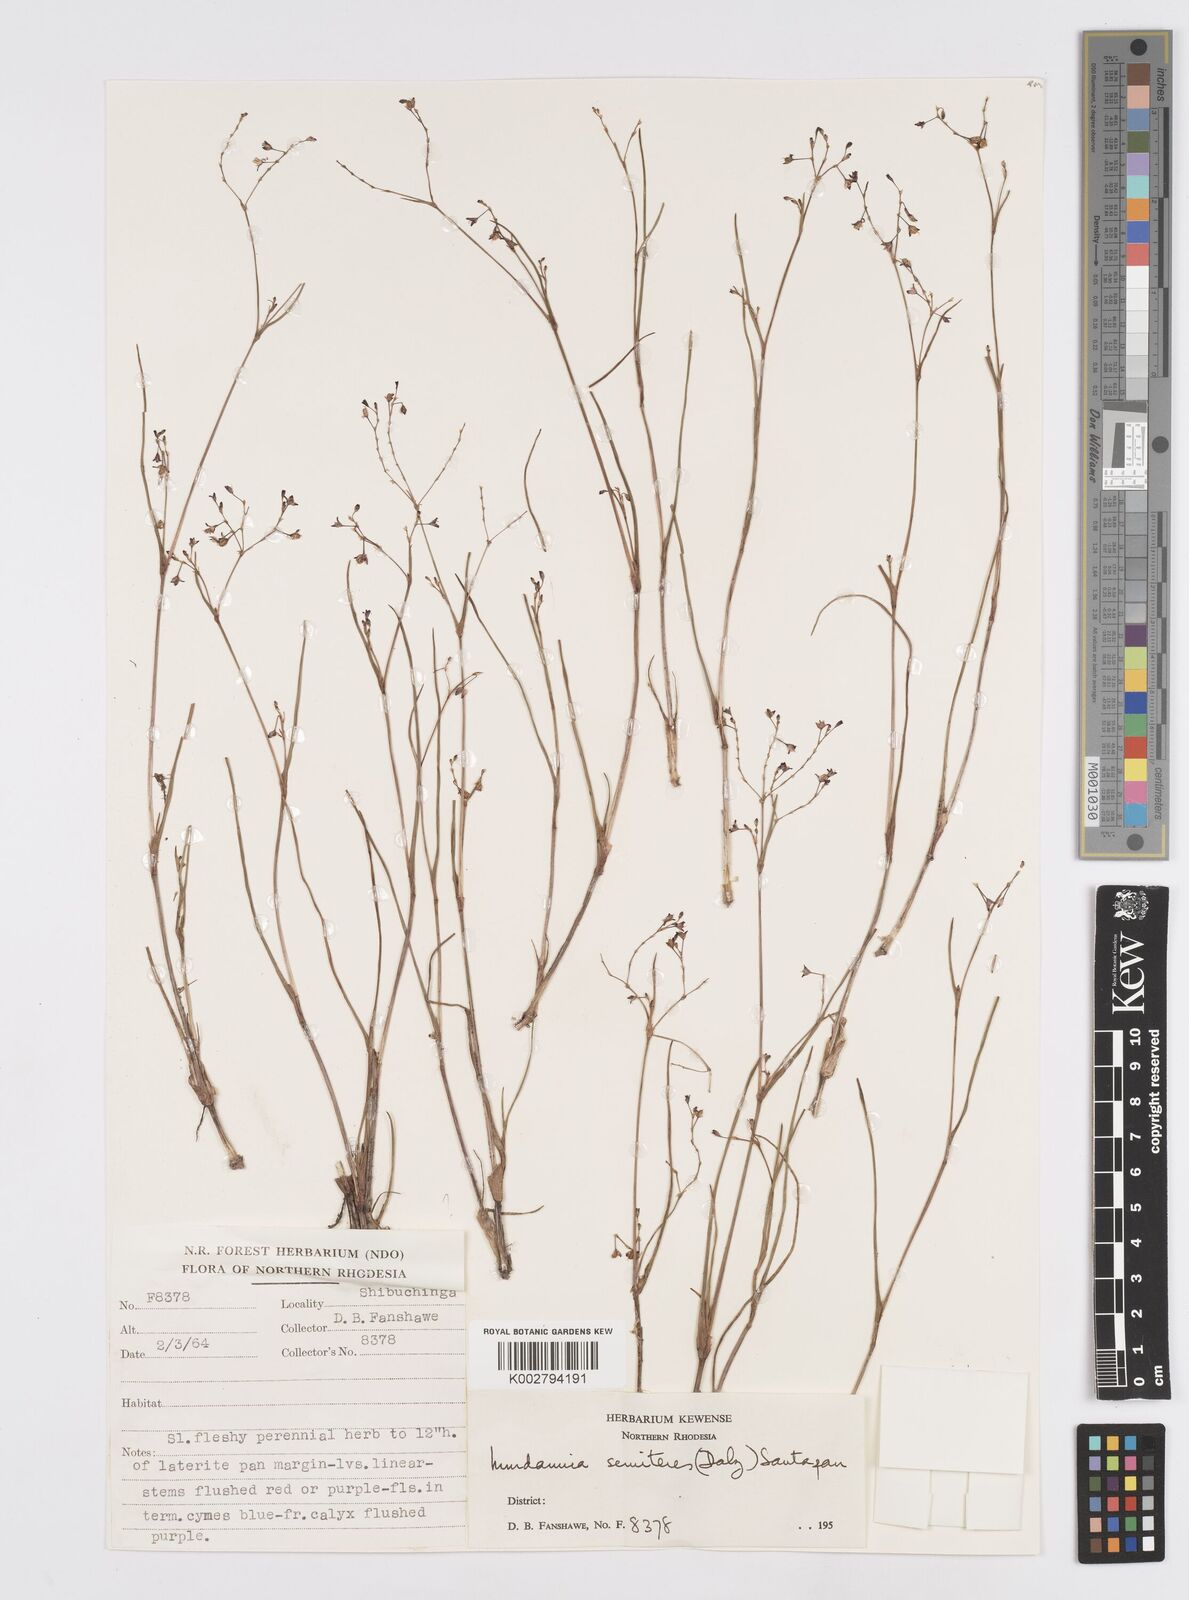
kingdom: Plantae
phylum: Tracheophyta
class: Liliopsida
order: Commelinales
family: Commelinaceae
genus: Murdannia
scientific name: Murdannia semiteres
